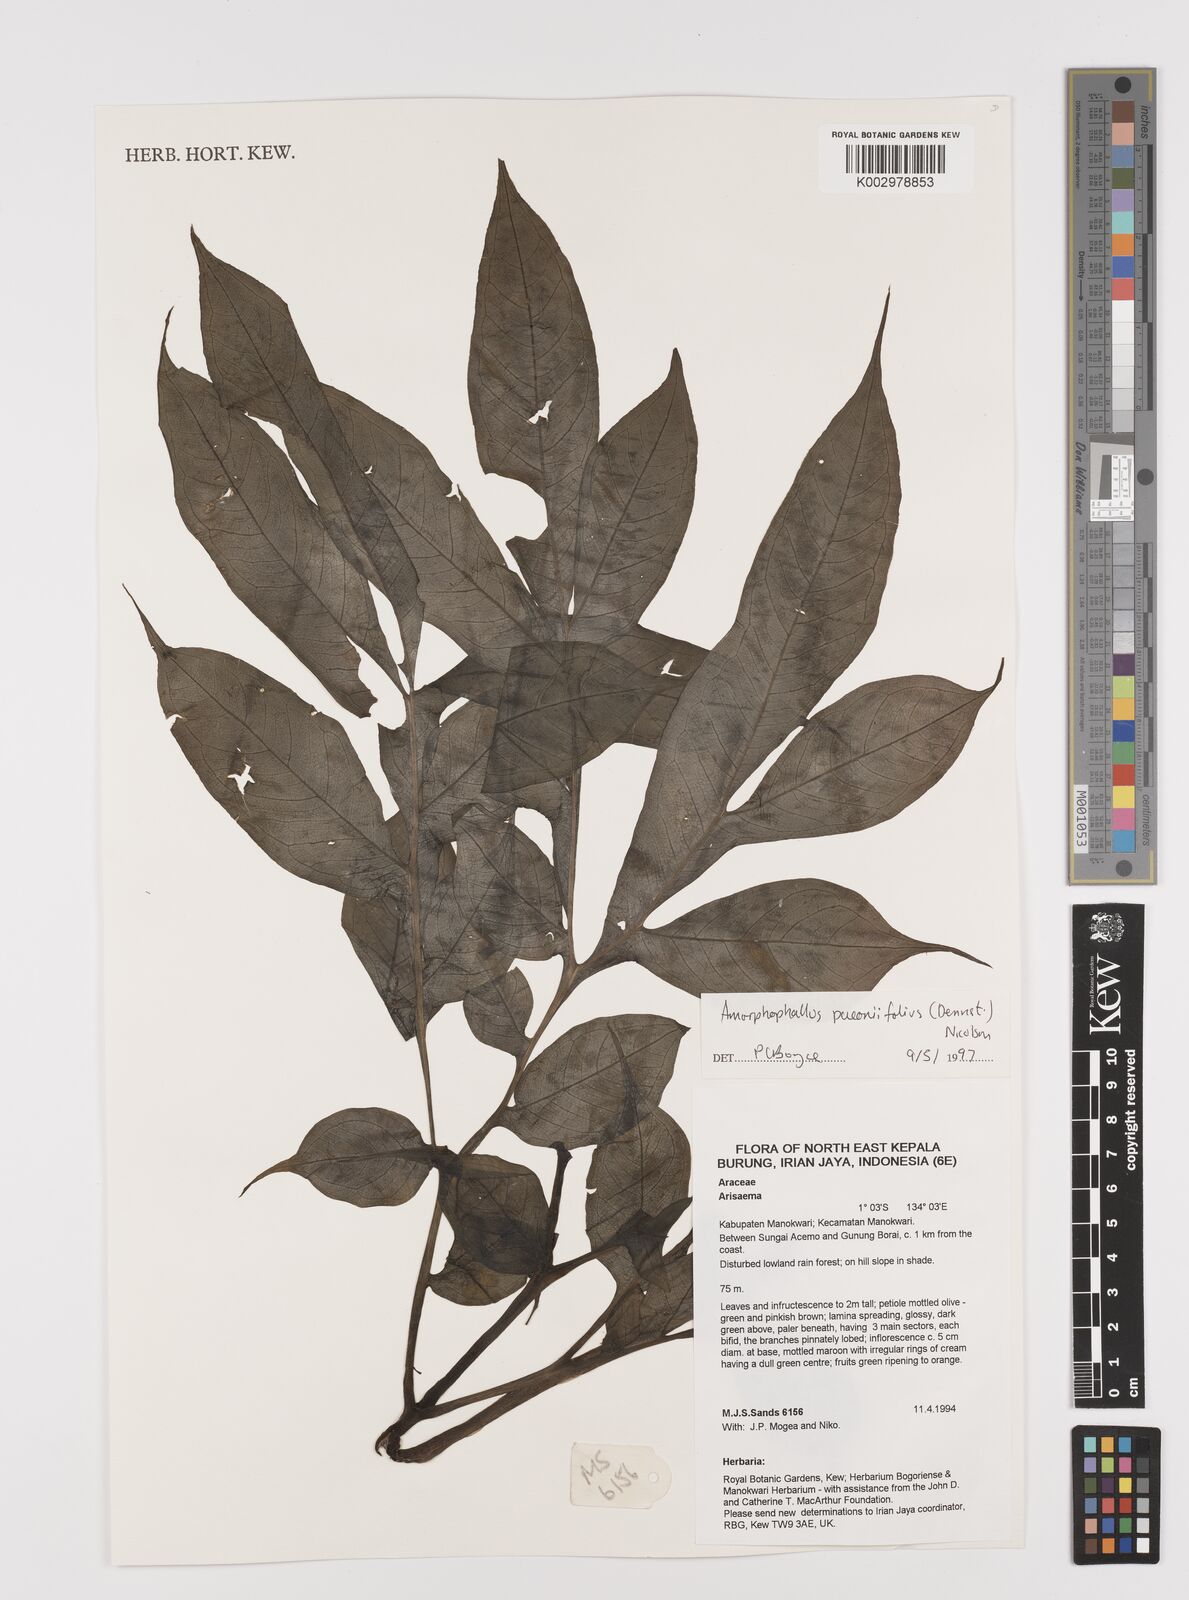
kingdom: Plantae
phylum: Tracheophyta
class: Liliopsida
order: Alismatales
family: Araceae
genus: Amorphophallus
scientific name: Amorphophallus paeoniifolius
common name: Telinga-potato
